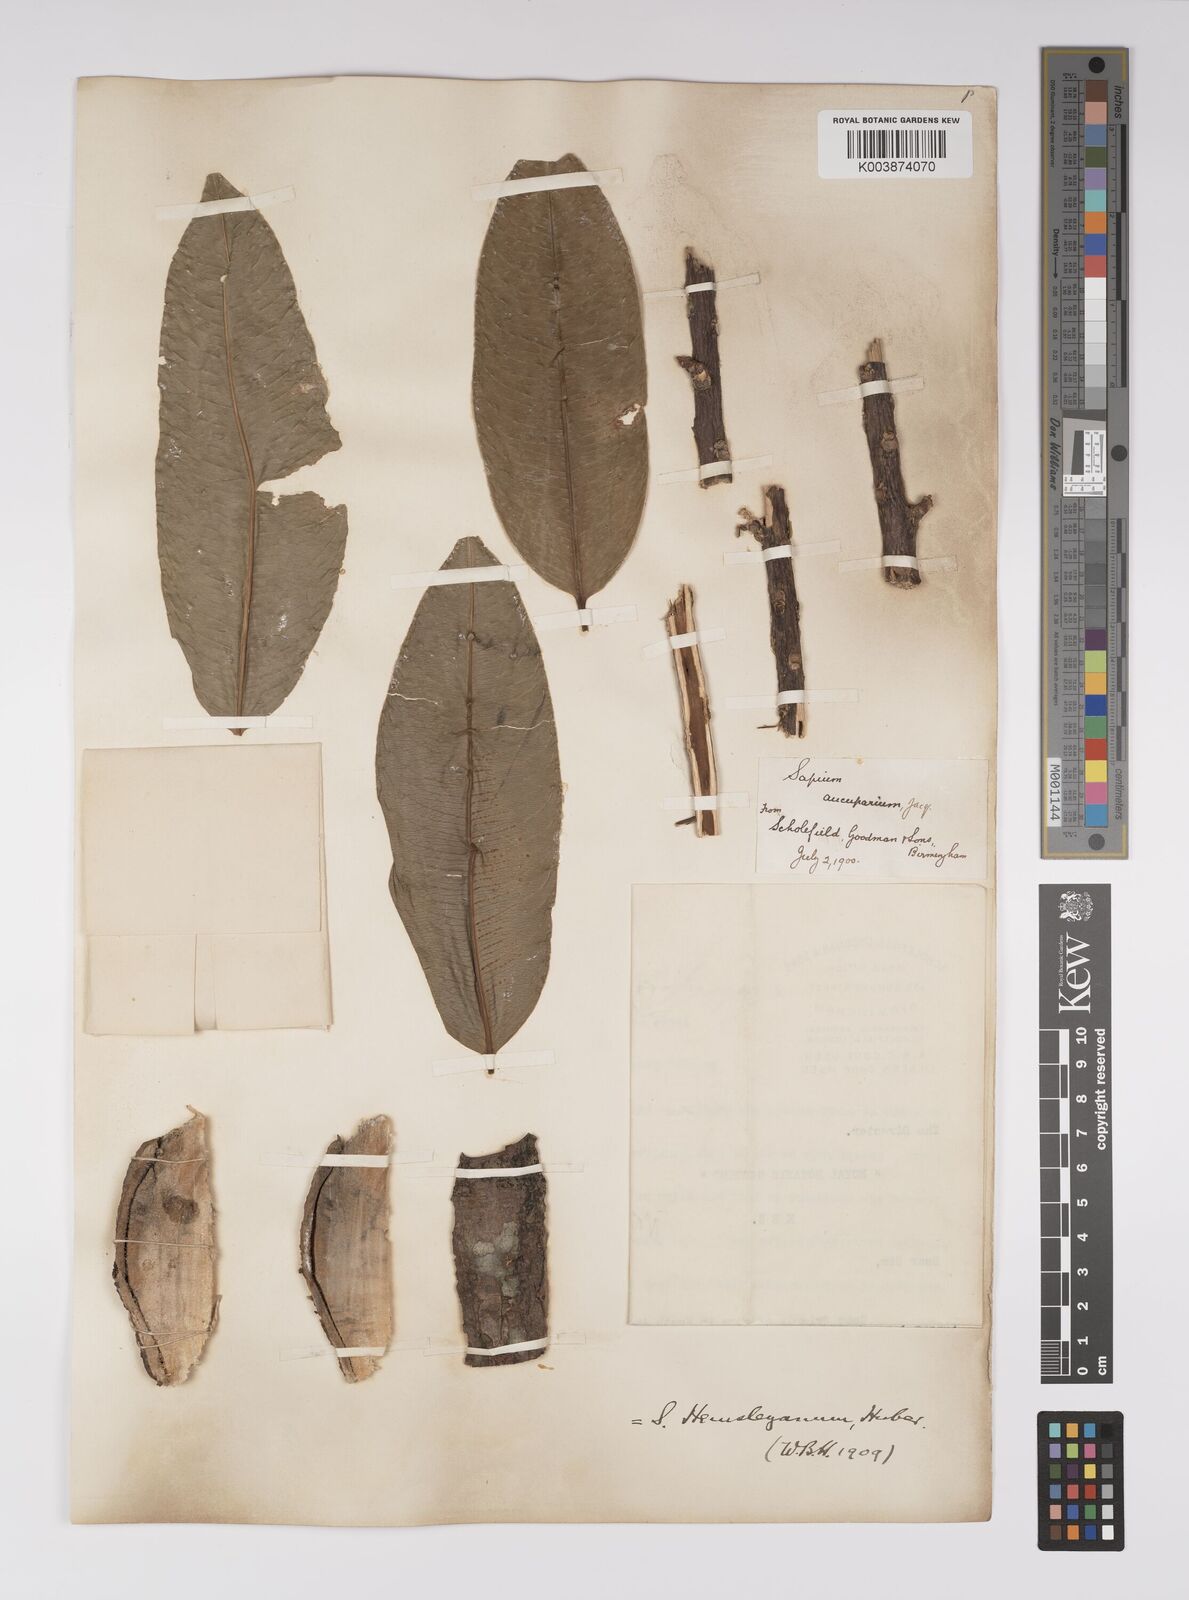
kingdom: Plantae
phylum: Tracheophyta
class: Magnoliopsida
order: Malpighiales
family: Euphorbiaceae
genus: Sapium
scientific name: Sapium glandulosum
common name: Milktree
